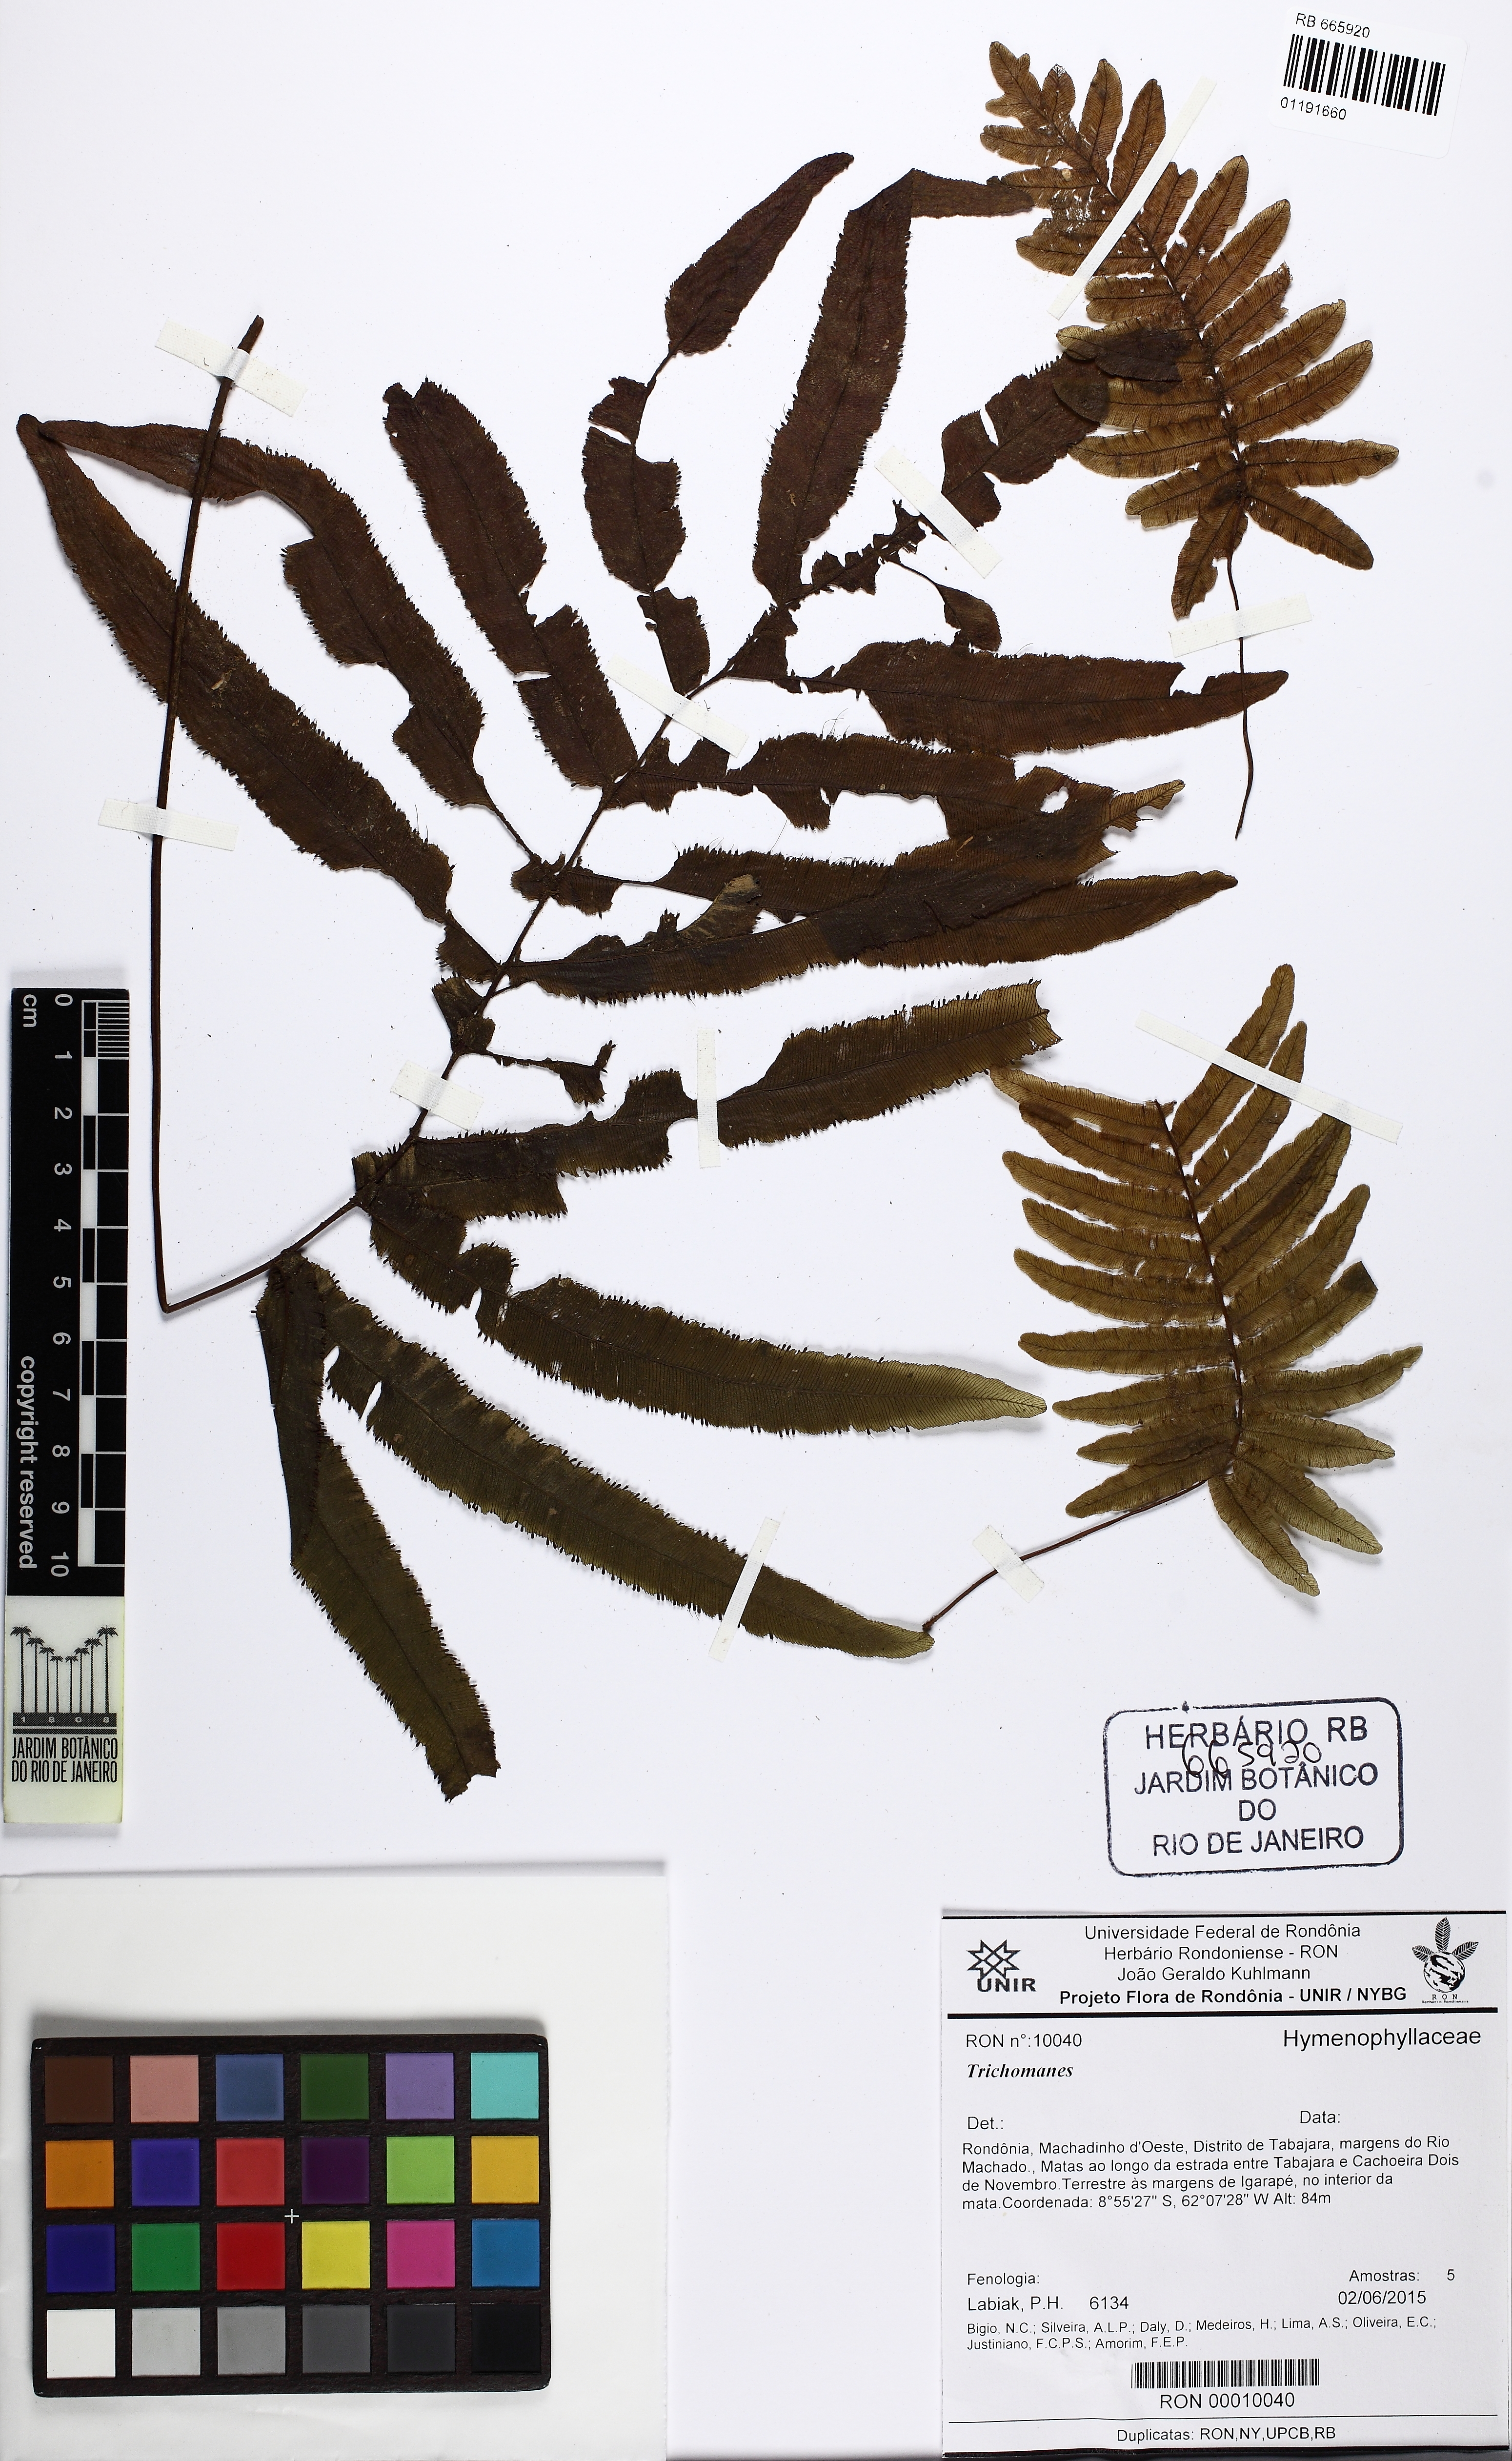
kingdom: Plantae
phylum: Tracheophyta
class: Polypodiopsida
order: Hymenophyllales
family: Hymenophyllaceae
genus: Trichomanes
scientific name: Trichomanes
